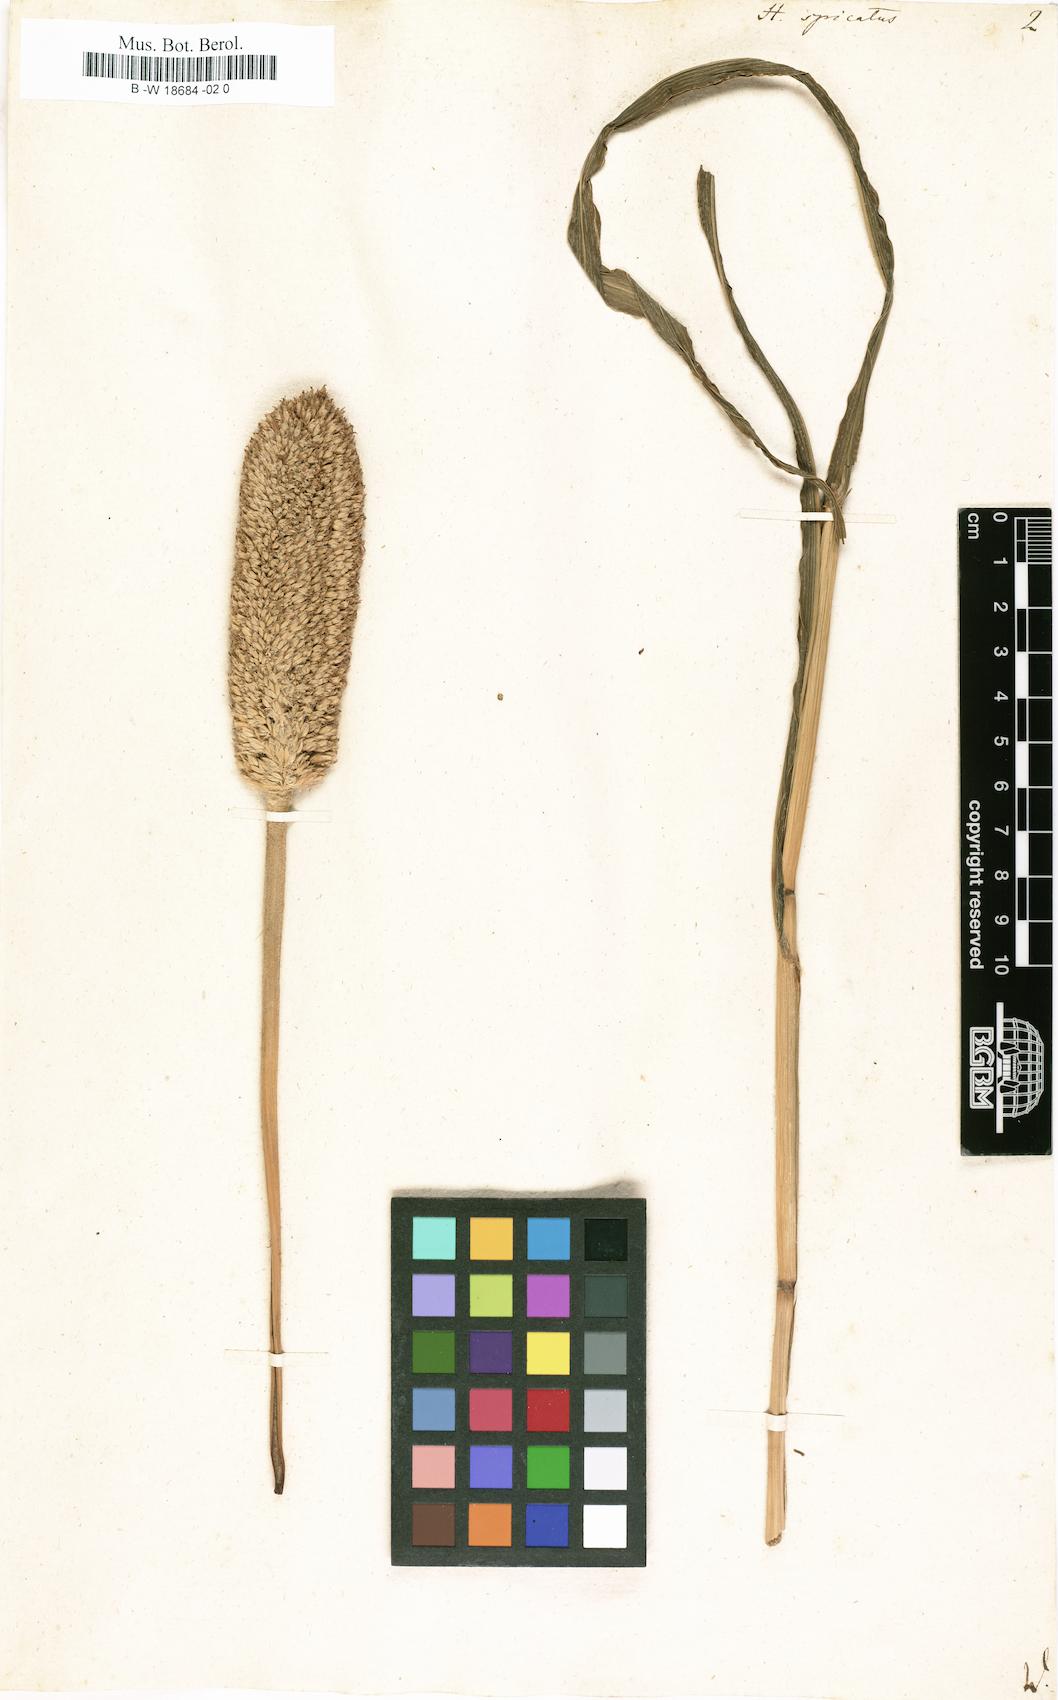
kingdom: Plantae
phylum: Tracheophyta
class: Liliopsida
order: Poales
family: Poaceae
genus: Cenchrus
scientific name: Cenchrus americanus
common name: Pearl millet
